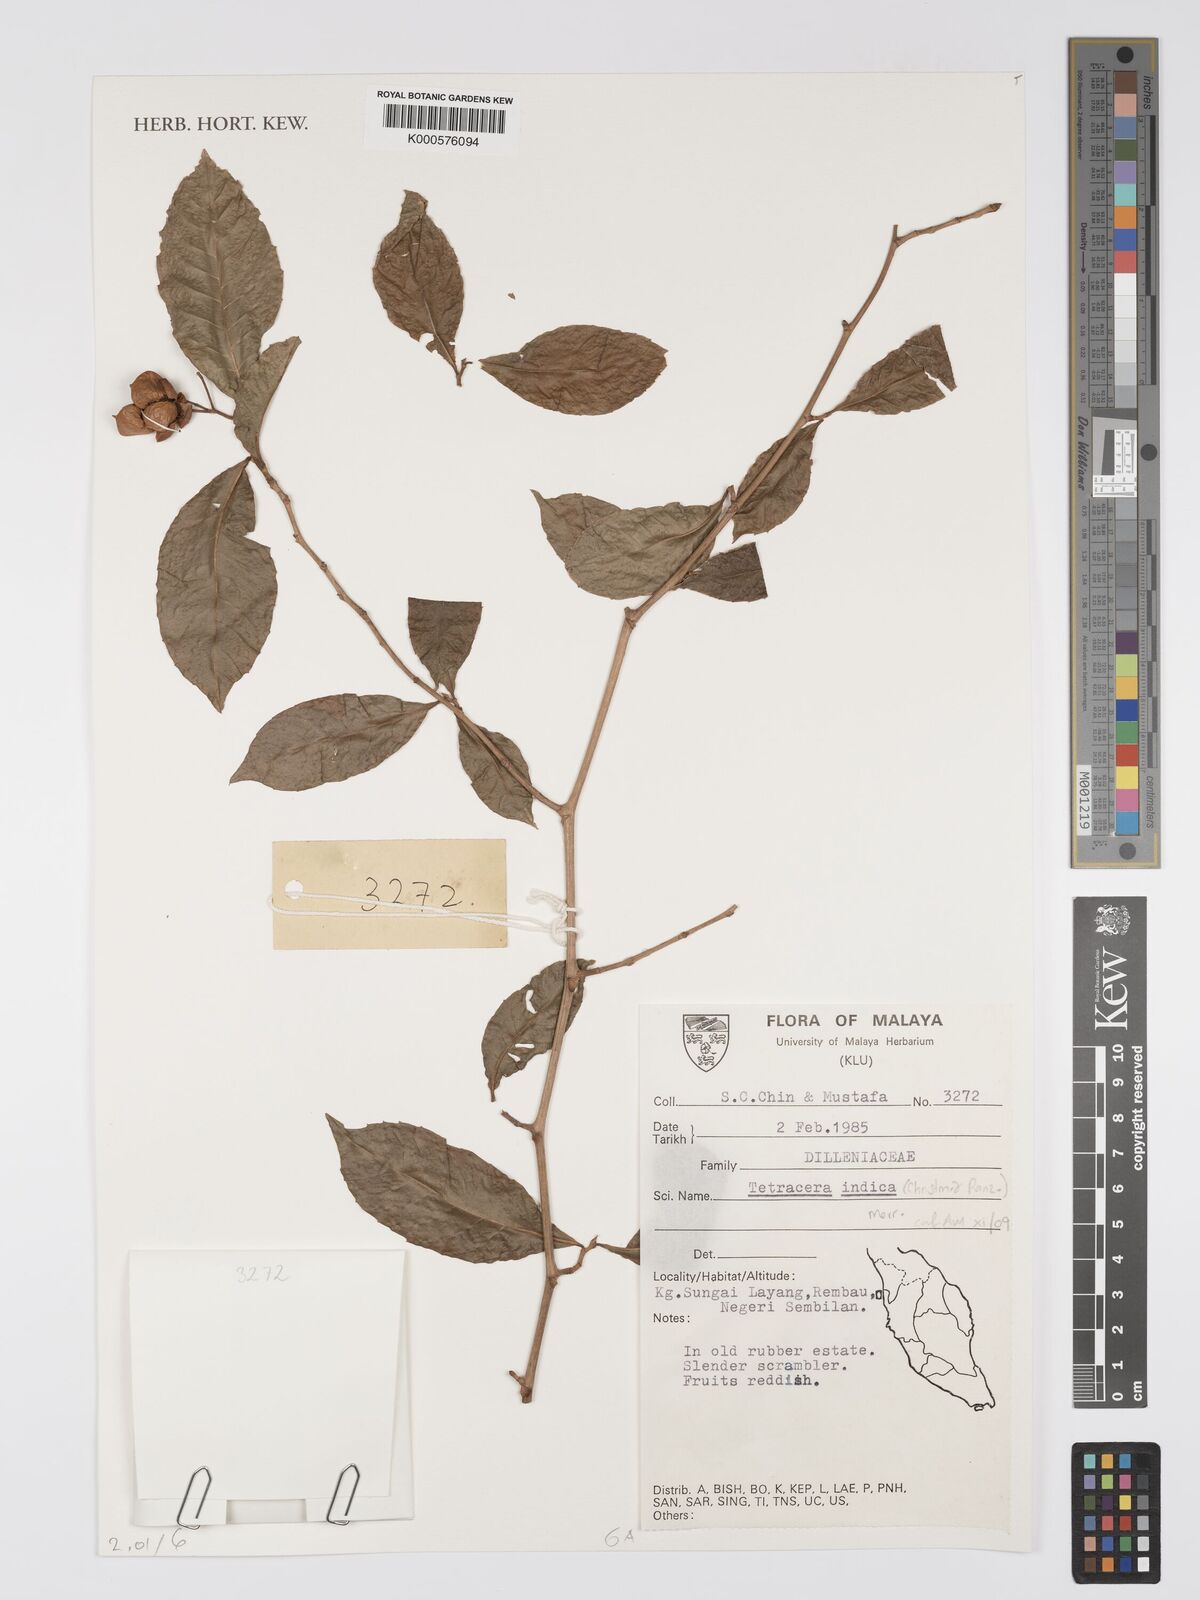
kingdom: Plantae
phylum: Tracheophyta
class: Magnoliopsida
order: Dilleniales
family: Dilleniaceae
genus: Tetracera
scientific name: Tetracera indica
